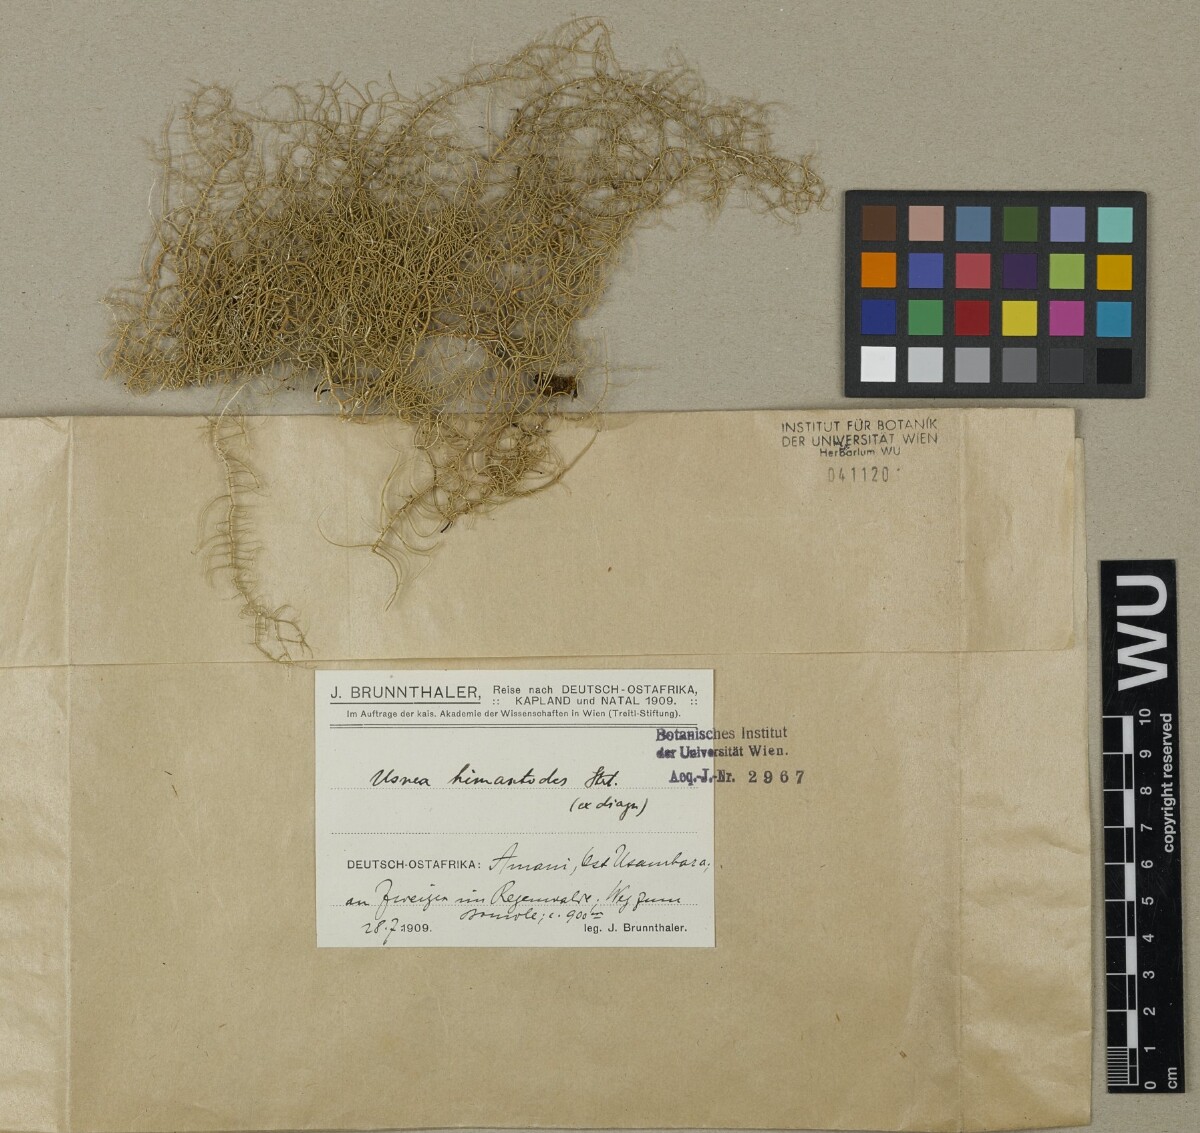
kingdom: Fungi
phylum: Ascomycota
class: Lecanoromycetes
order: Lecanorales
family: Parmeliaceae
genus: Usnea
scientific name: Usnea himantodes
